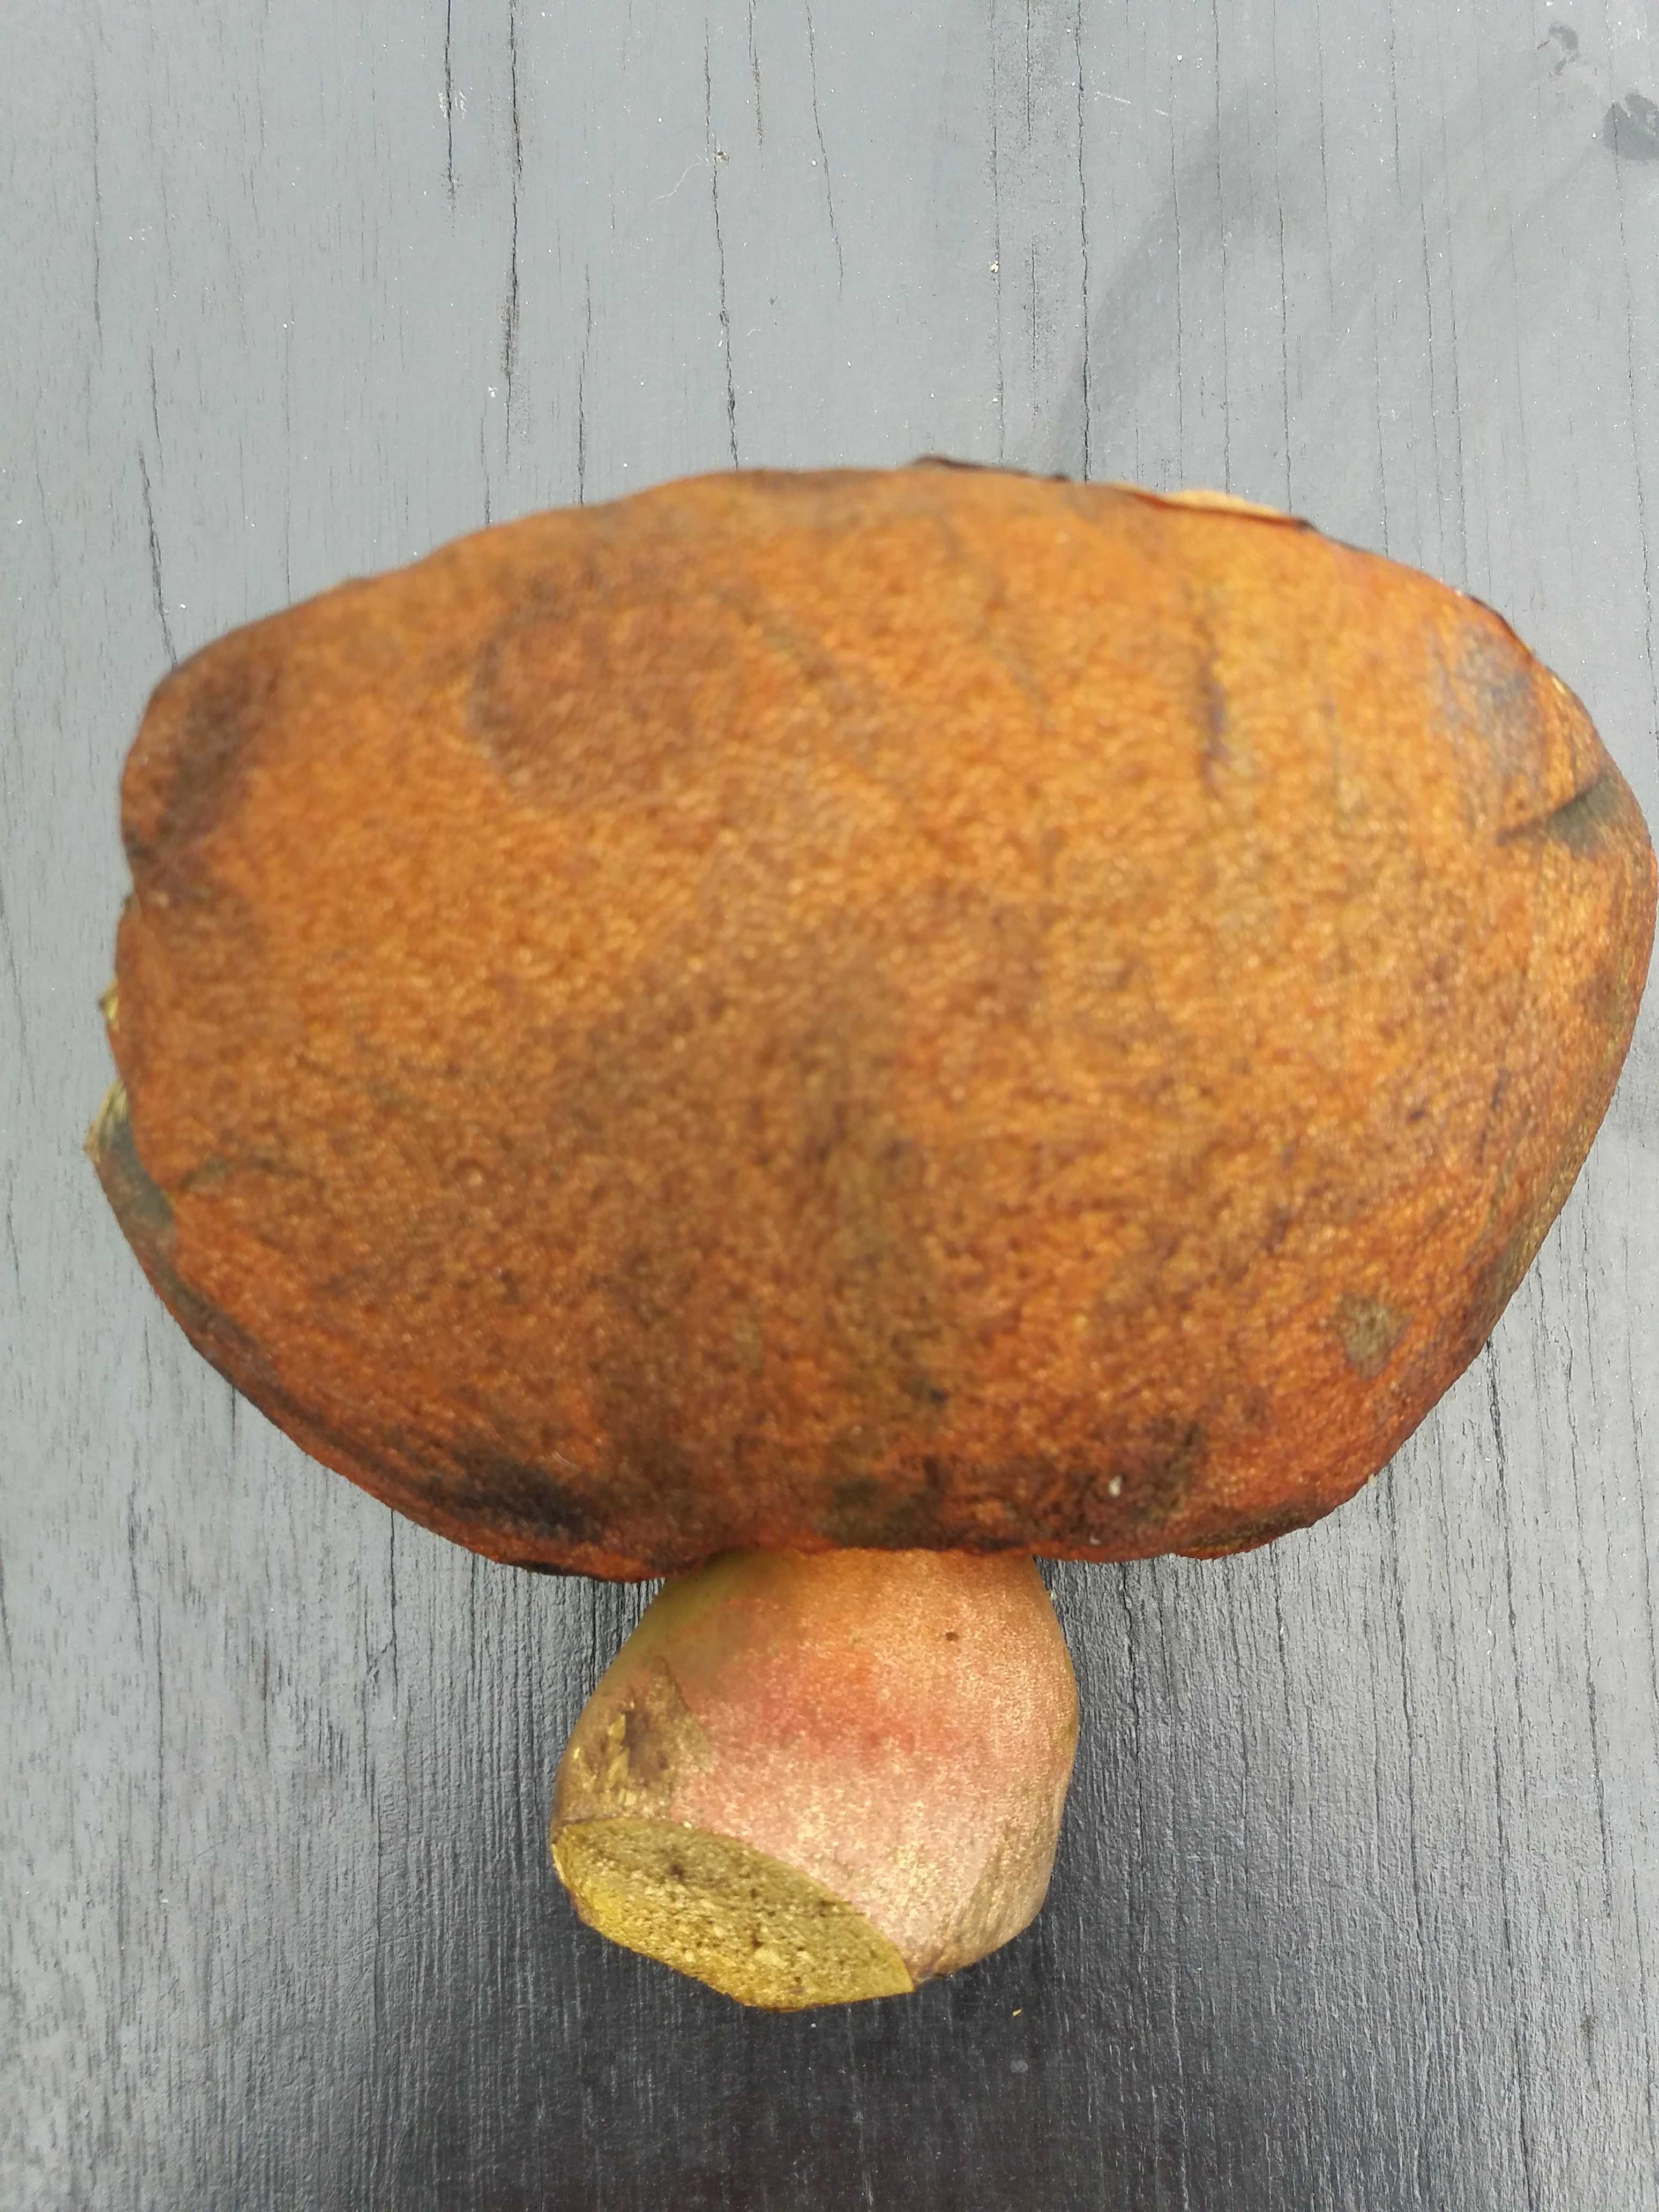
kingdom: Fungi
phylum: Basidiomycota
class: Agaricomycetes
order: Boletales
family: Boletaceae
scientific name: Boletaceae
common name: rørhatfamilien
